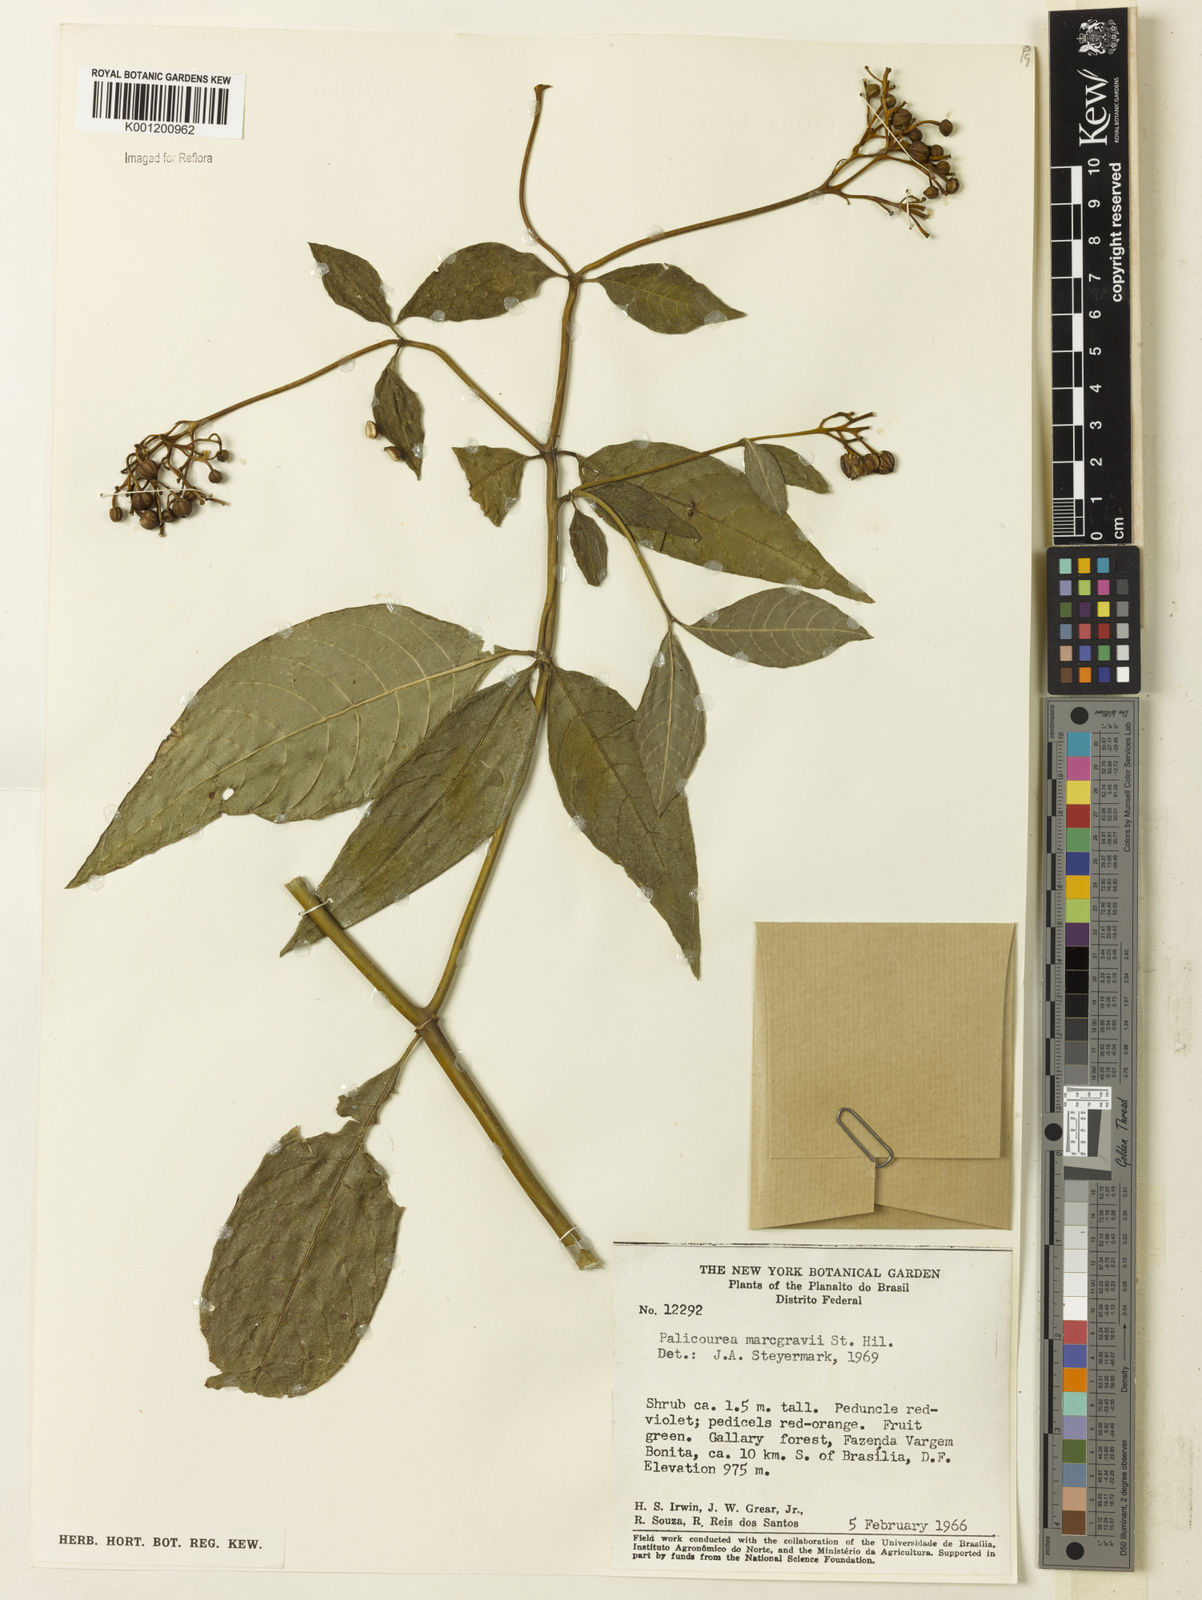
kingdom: Plantae
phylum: Tracheophyta
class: Magnoliopsida
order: Gentianales
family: Rubiaceae
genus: Palicourea
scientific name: Palicourea marcgravii
